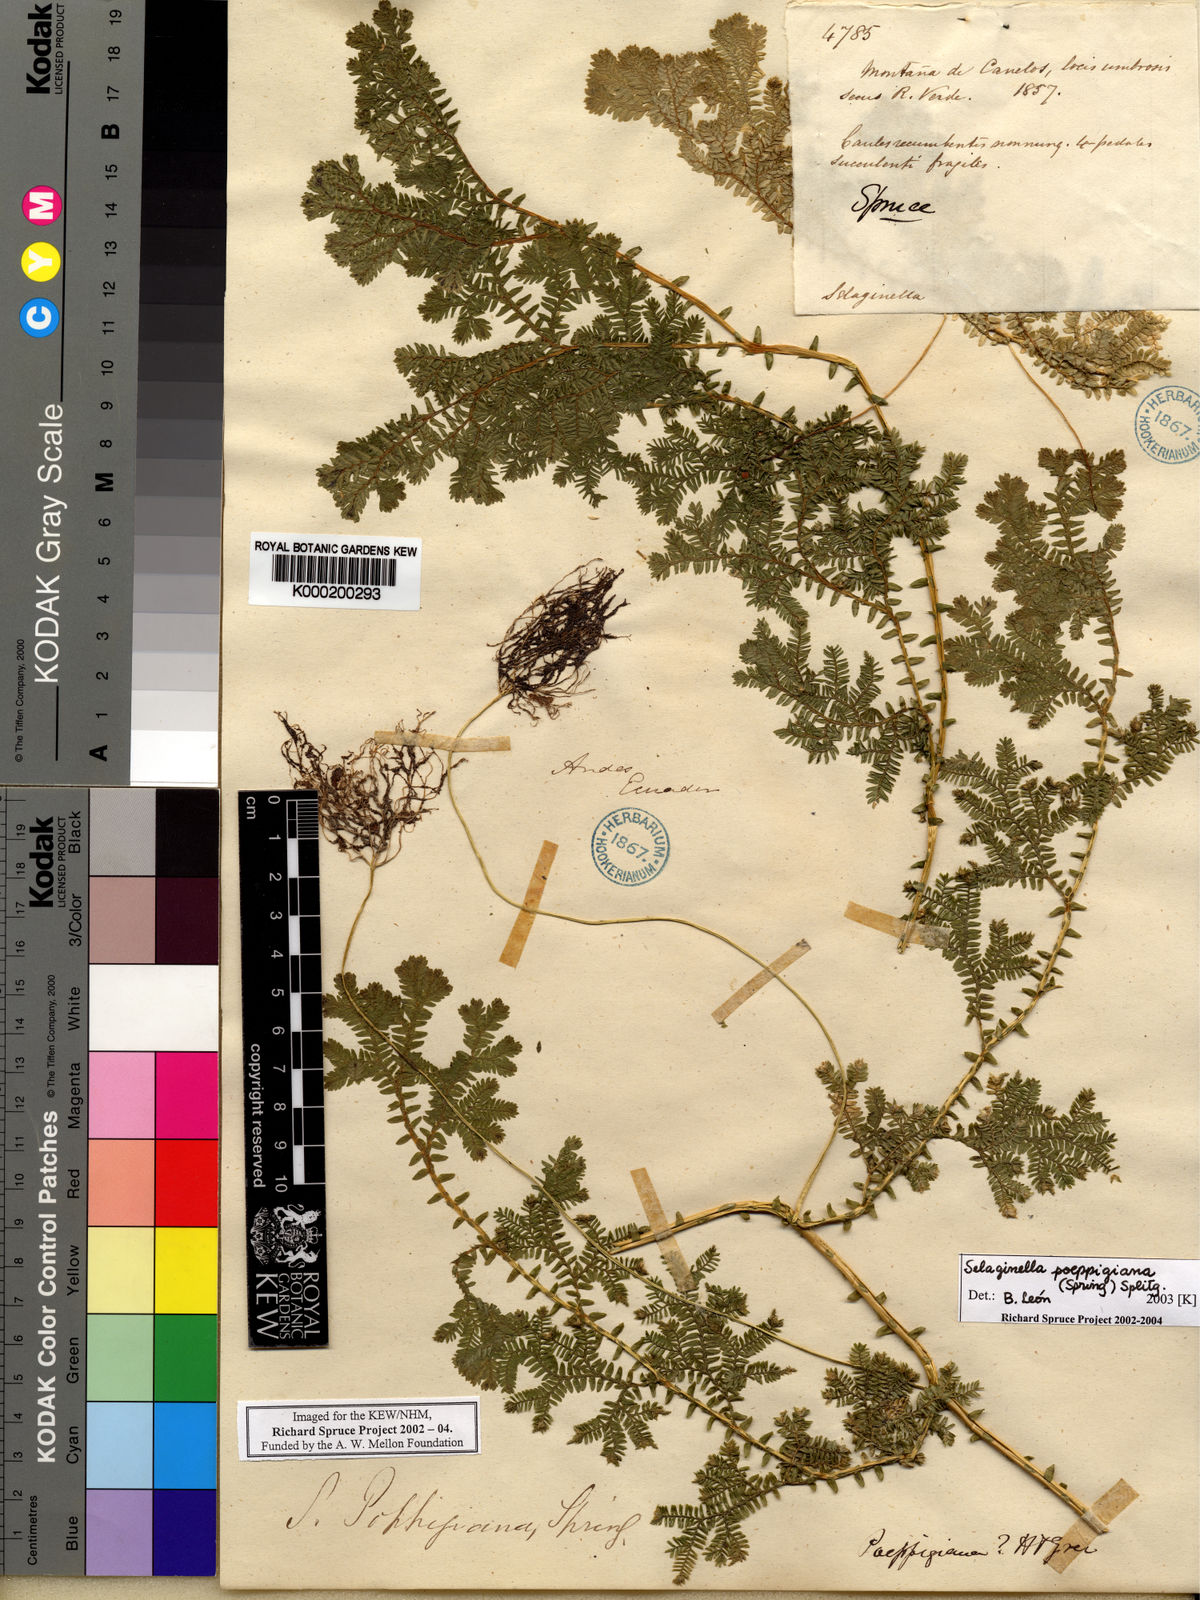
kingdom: Plantae
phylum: Tracheophyta
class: Lycopodiopsida
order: Selaginellales
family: Selaginellaceae
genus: Selaginella
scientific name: Selaginella poeppigiana
